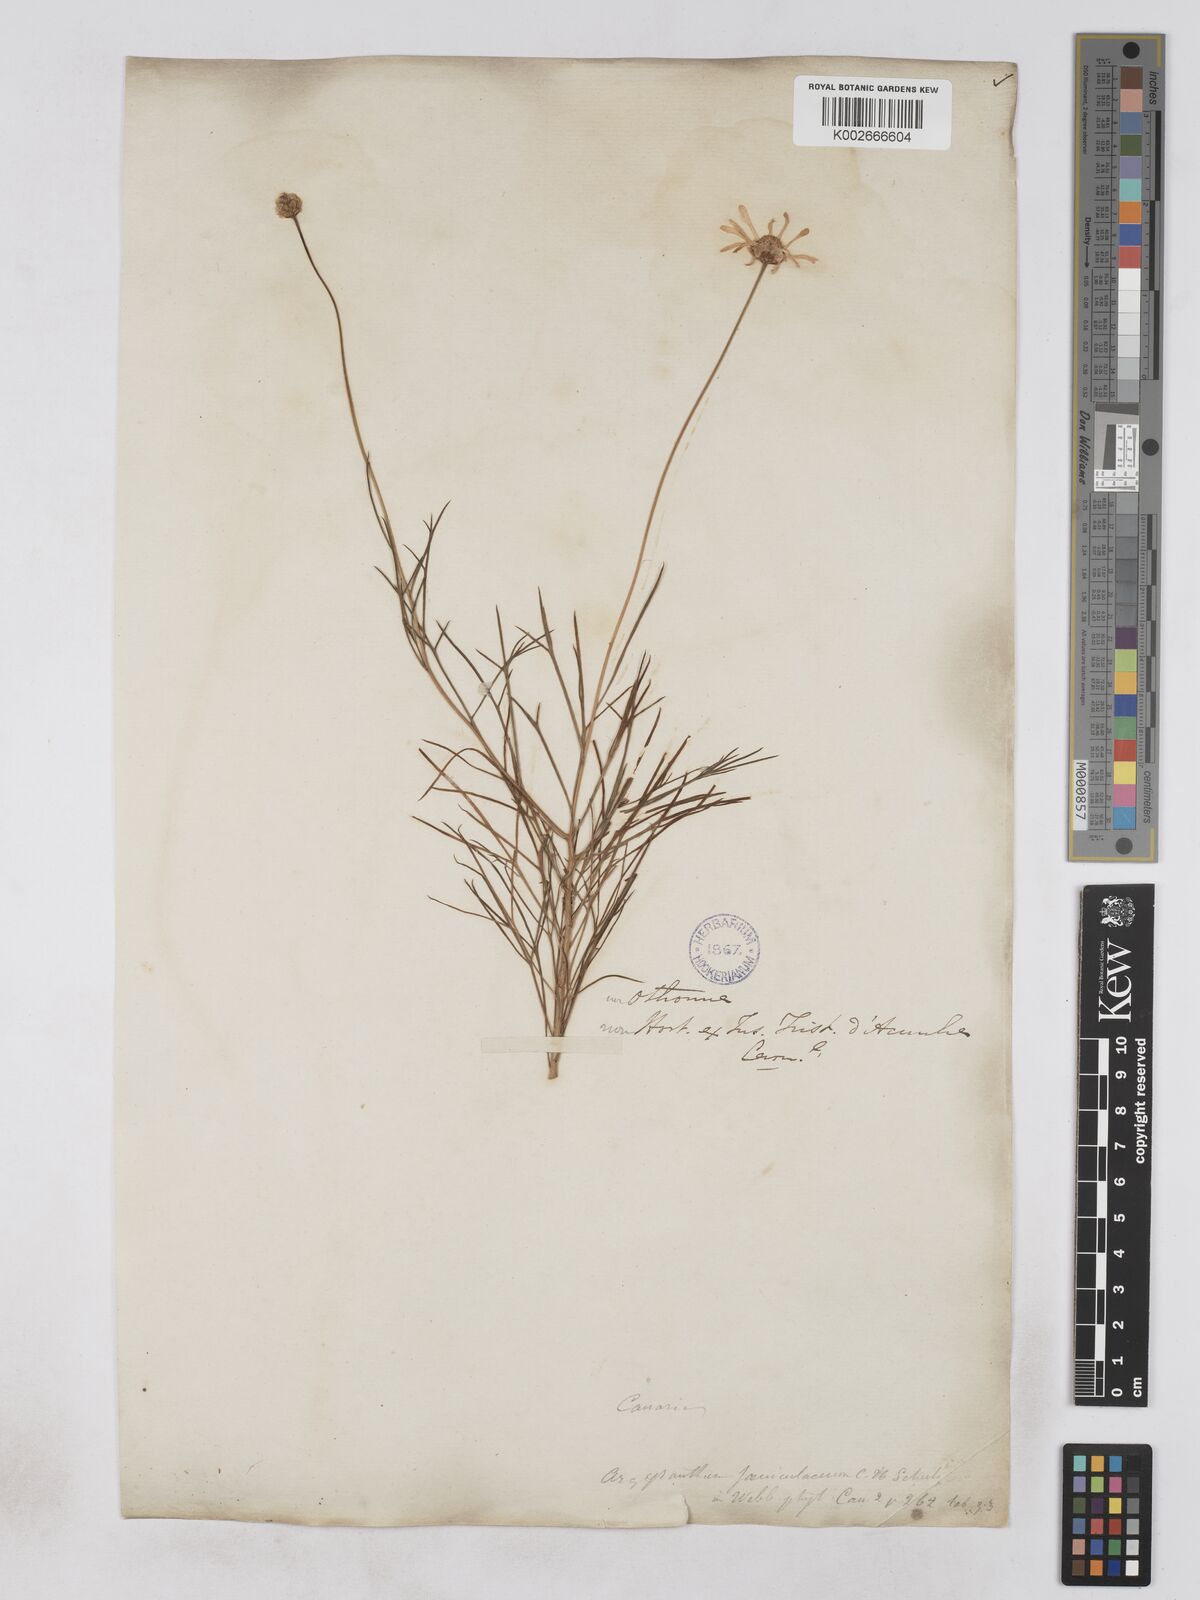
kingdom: Plantae
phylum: Tracheophyta
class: Magnoliopsida
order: Asterales
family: Asteraceae
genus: Argyranthemum
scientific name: Argyranthemum gracile
